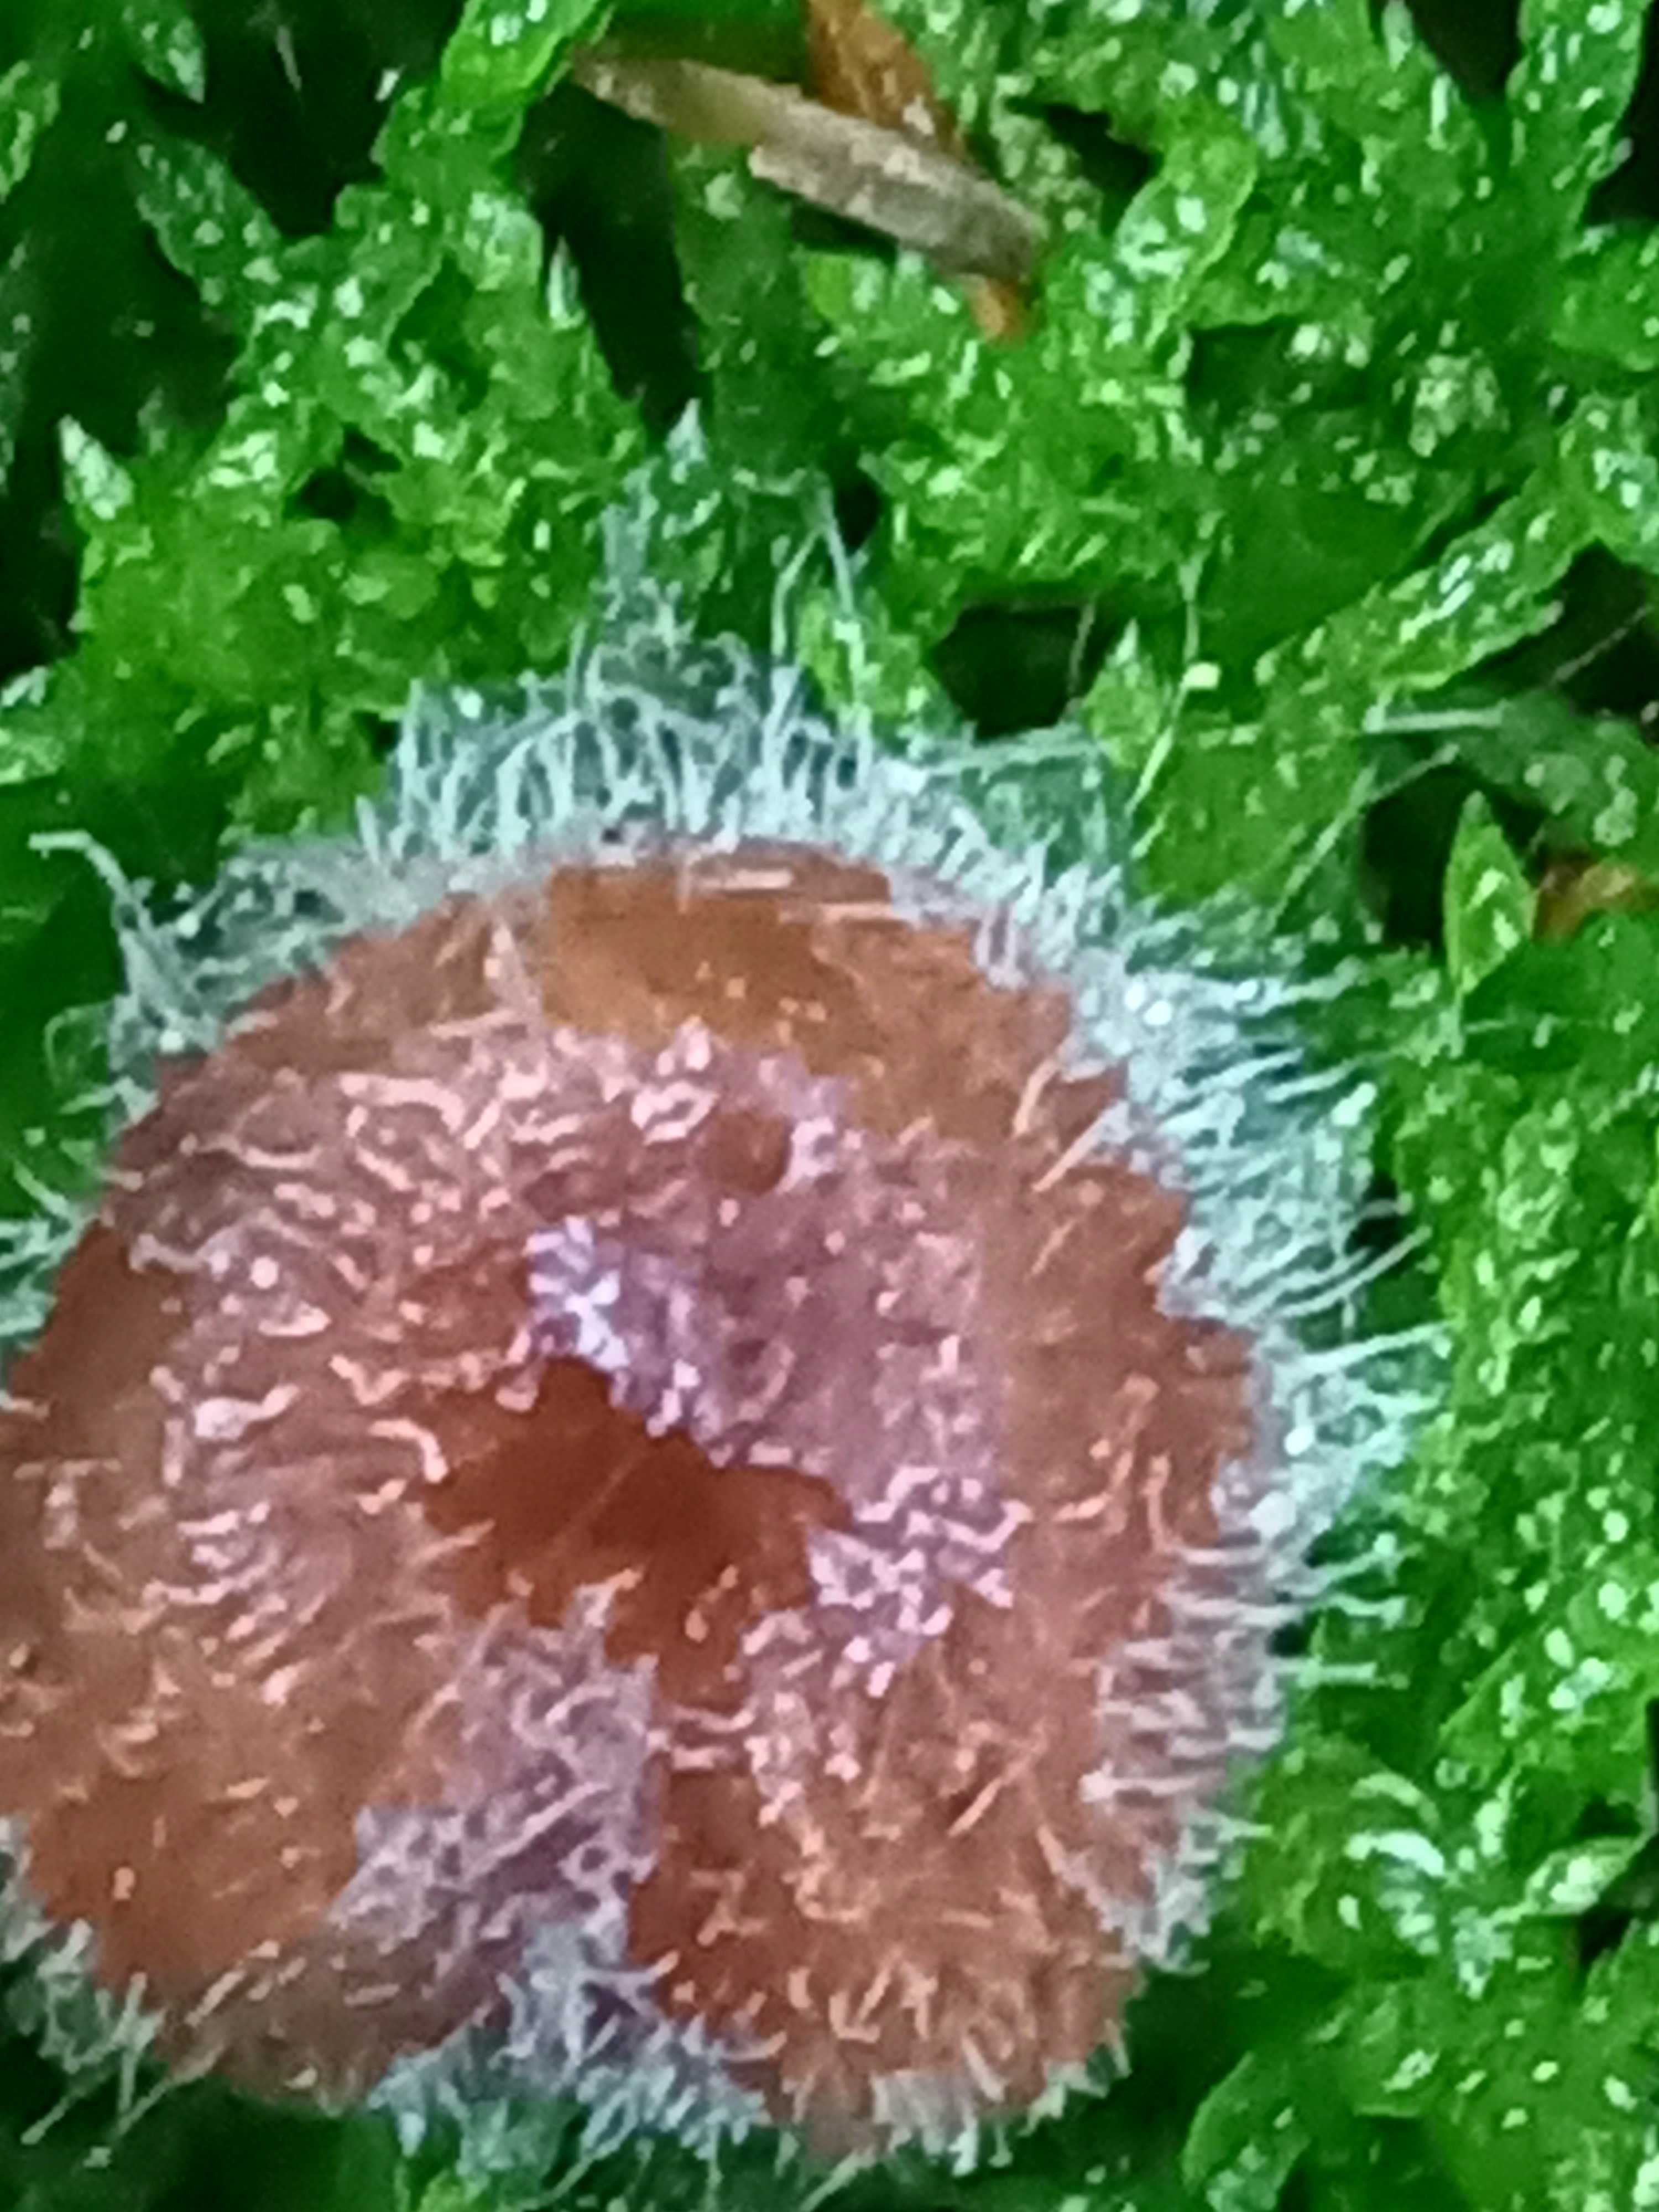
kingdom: Fungi
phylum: Mucoromycota
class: Mucoromycetes
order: Mucorales
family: Phycomycetaceae
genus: Spinellus
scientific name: Spinellus fusiger
